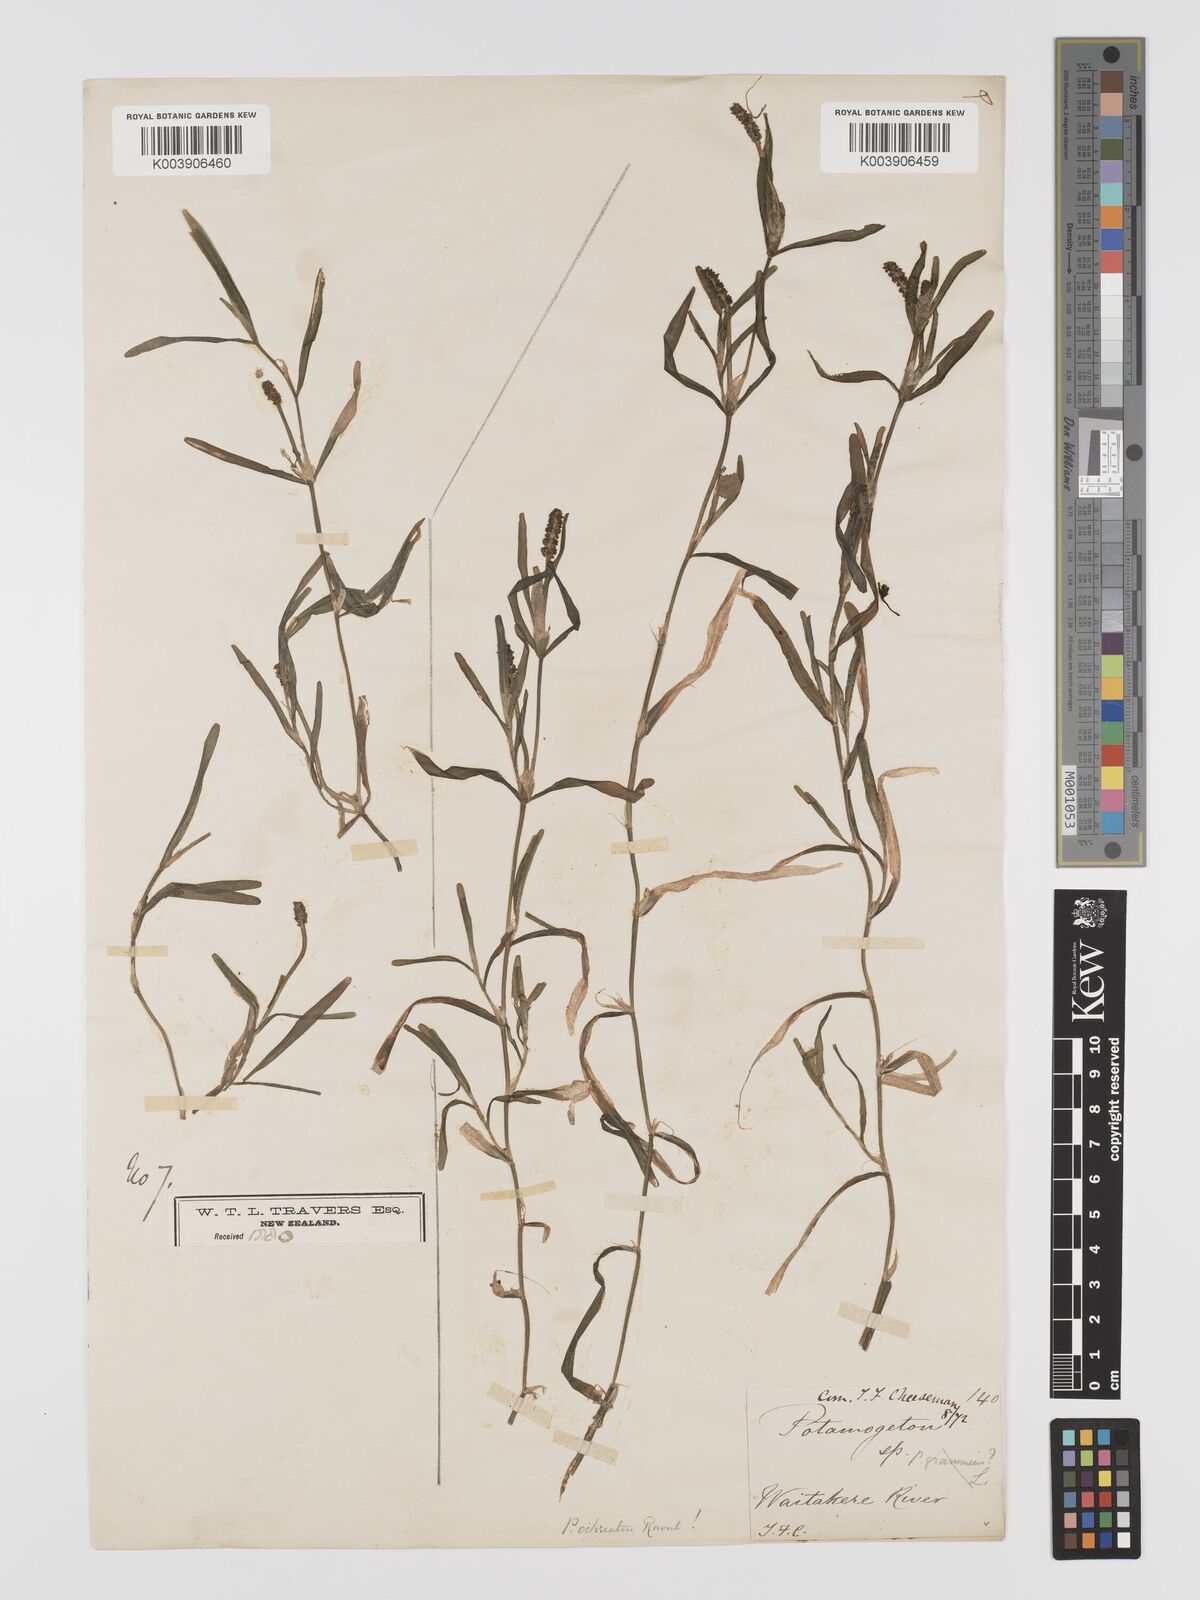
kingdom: Plantae
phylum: Tracheophyta
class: Liliopsida
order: Alismatales
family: Potamogetonaceae
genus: Potamogeton
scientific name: Potamogeton ochreatus
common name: Blunt pondweed
